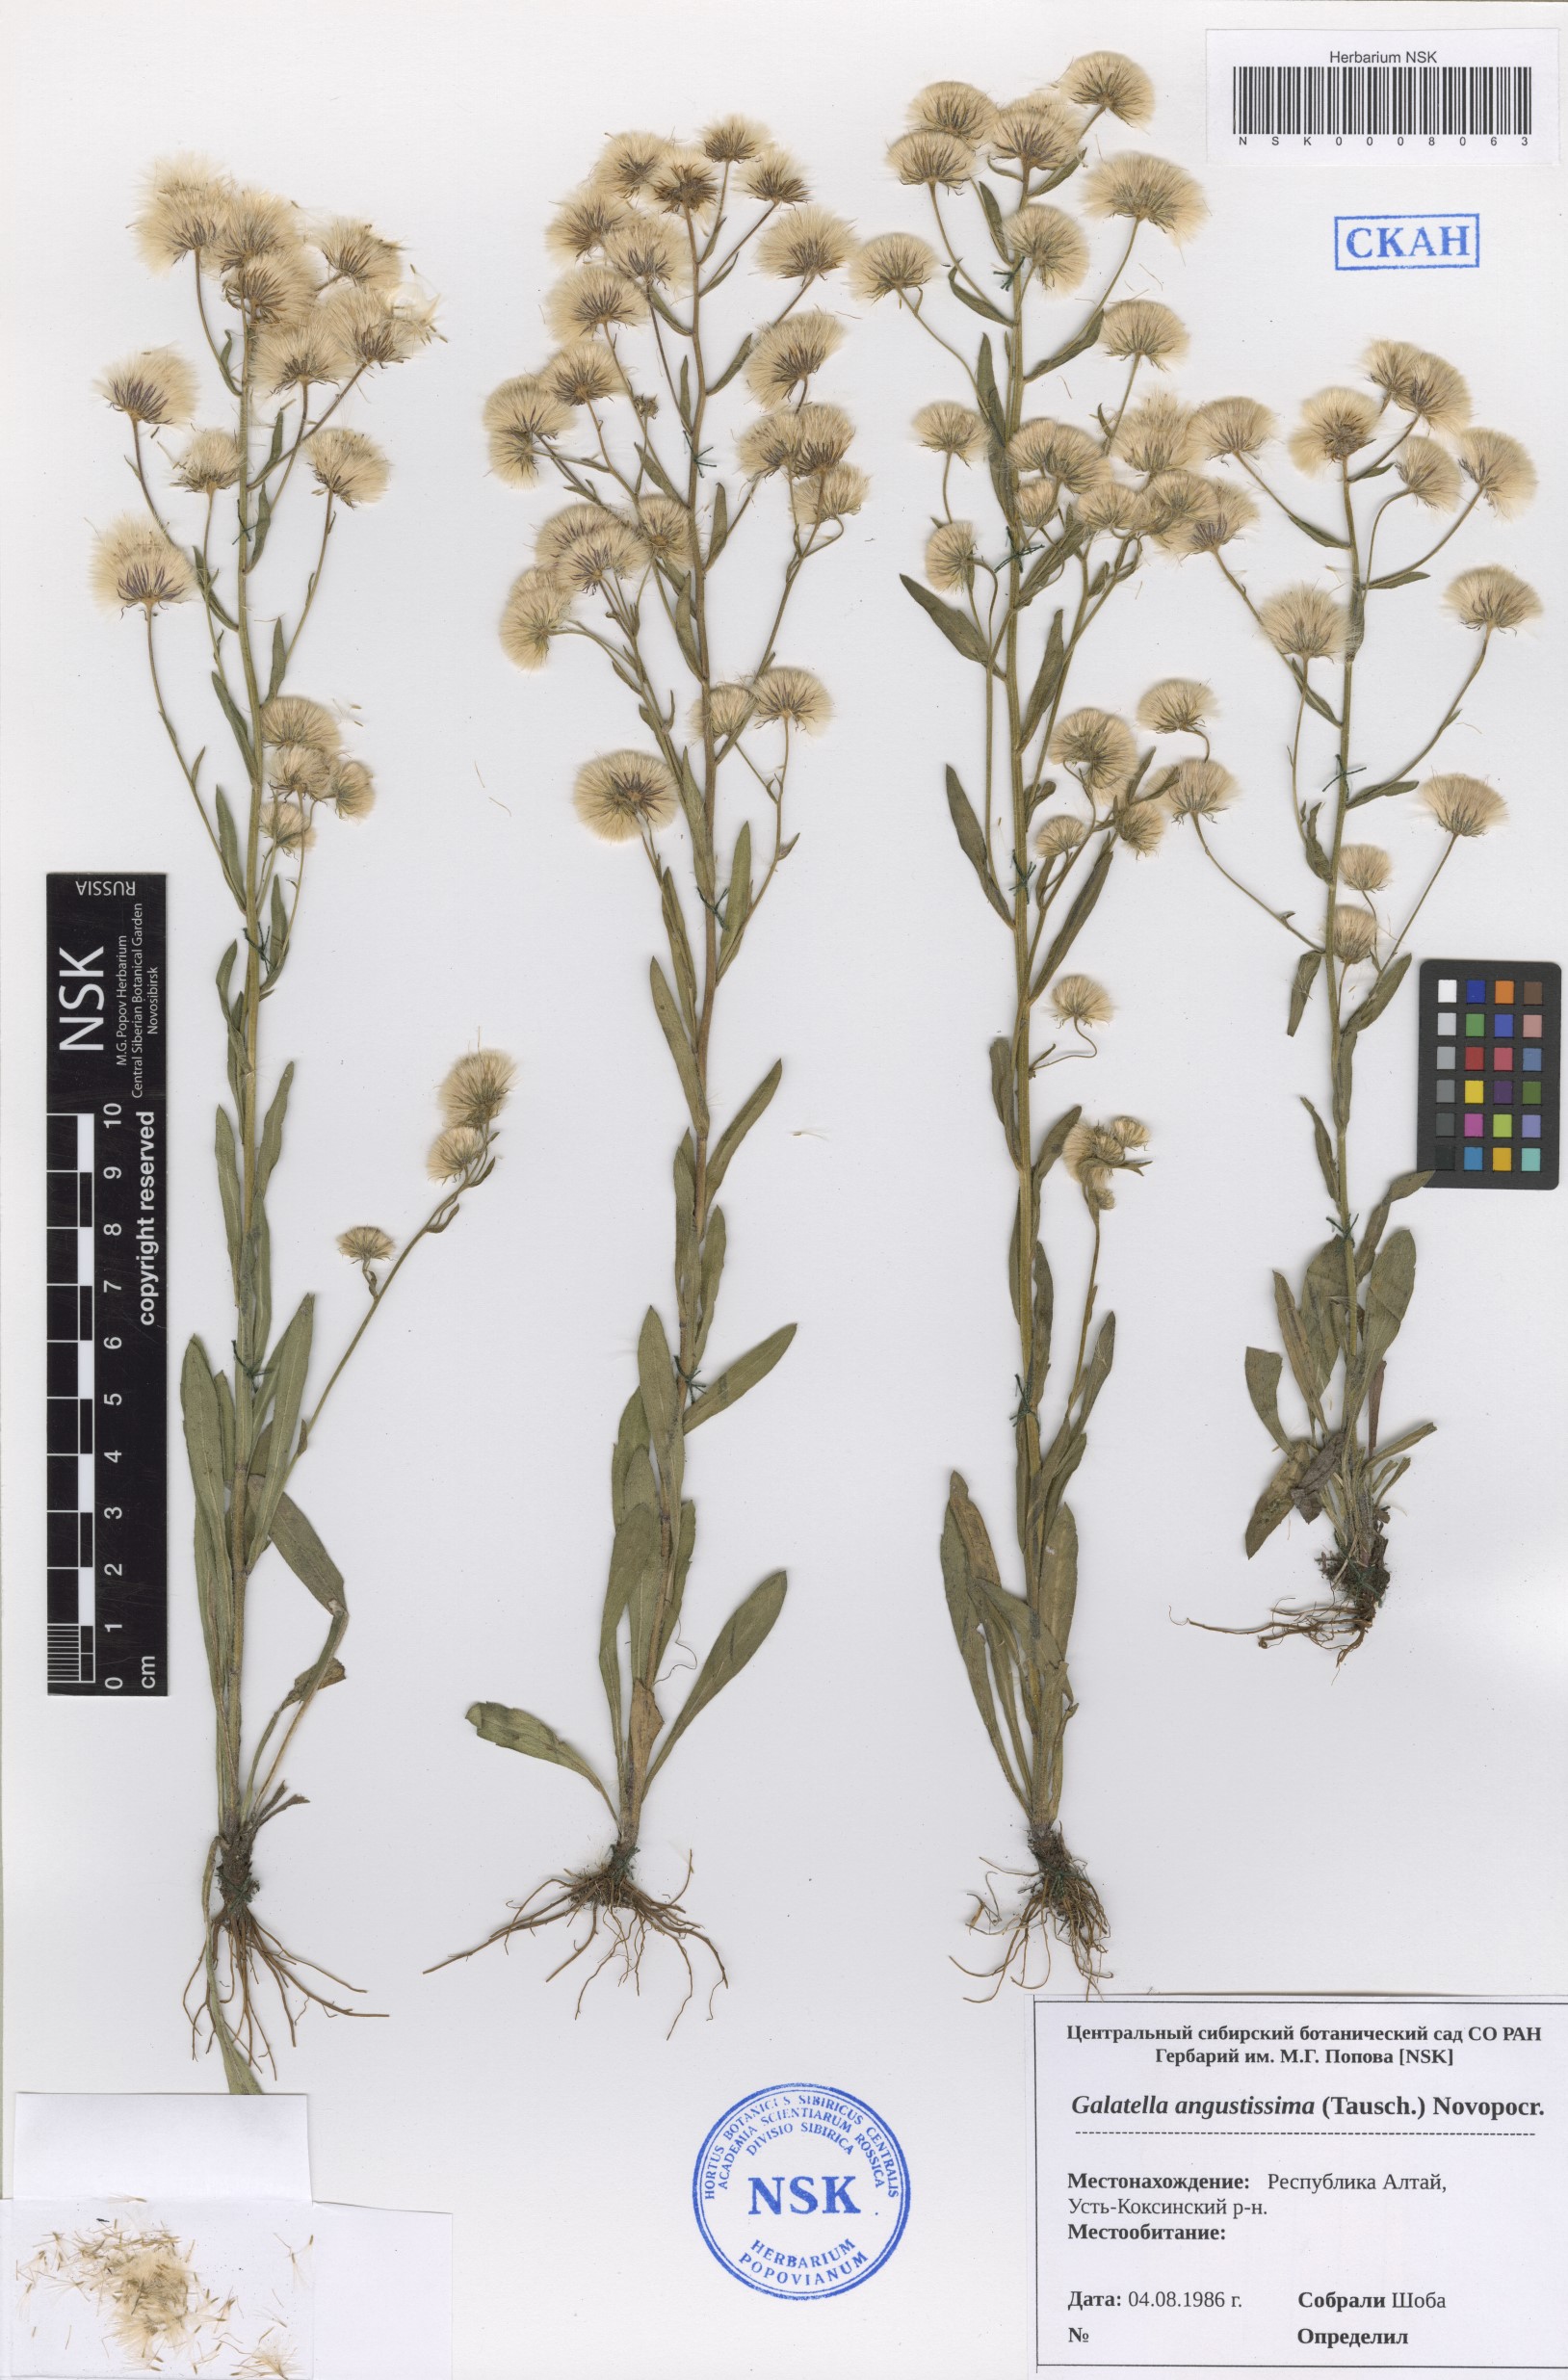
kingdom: Plantae
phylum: Tracheophyta
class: Magnoliopsida
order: Asterales
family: Asteraceae
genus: Galatella
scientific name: Galatella angustissima
